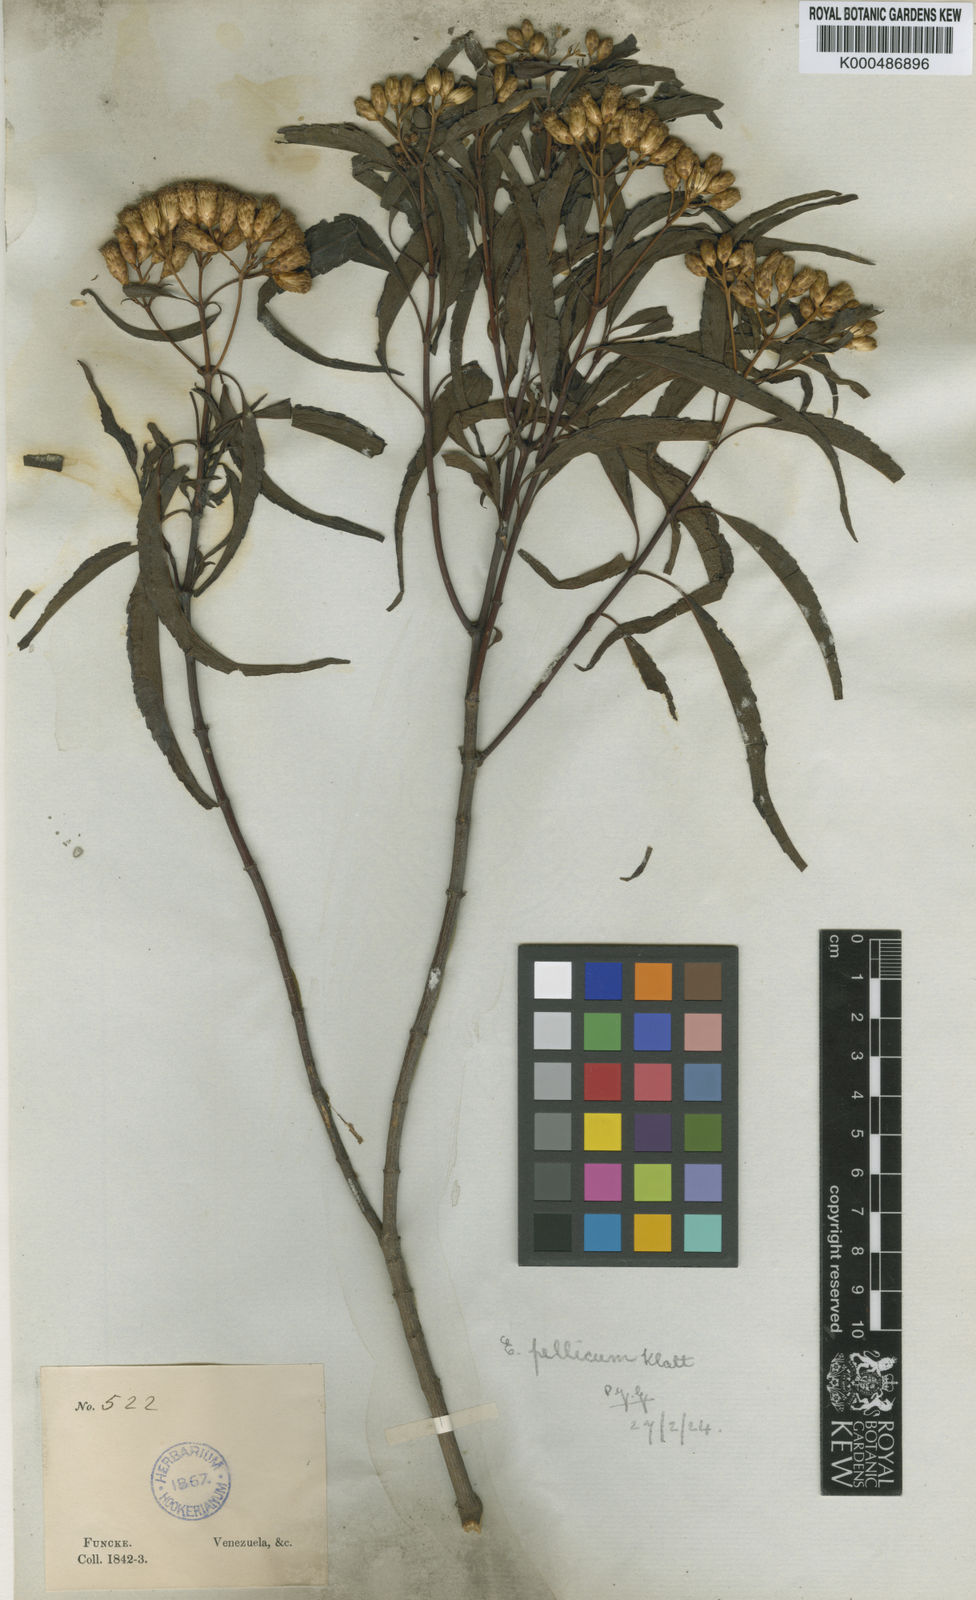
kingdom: Plantae
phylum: Tracheophyta
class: Magnoliopsida
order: Asterales
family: Asteraceae
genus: Chromolaena
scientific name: Chromolaena
